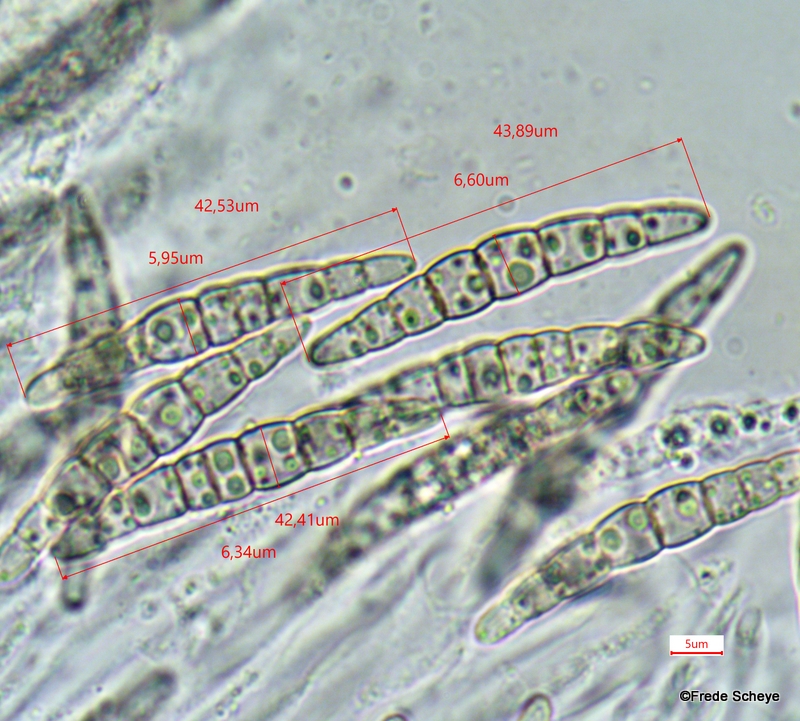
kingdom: Fungi
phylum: Ascomycota
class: Dothideomycetes
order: Pleosporales
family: Leptosphaeriaceae
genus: Leptosphaeria
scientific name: Leptosphaeria acuta
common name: spids kulkegle
